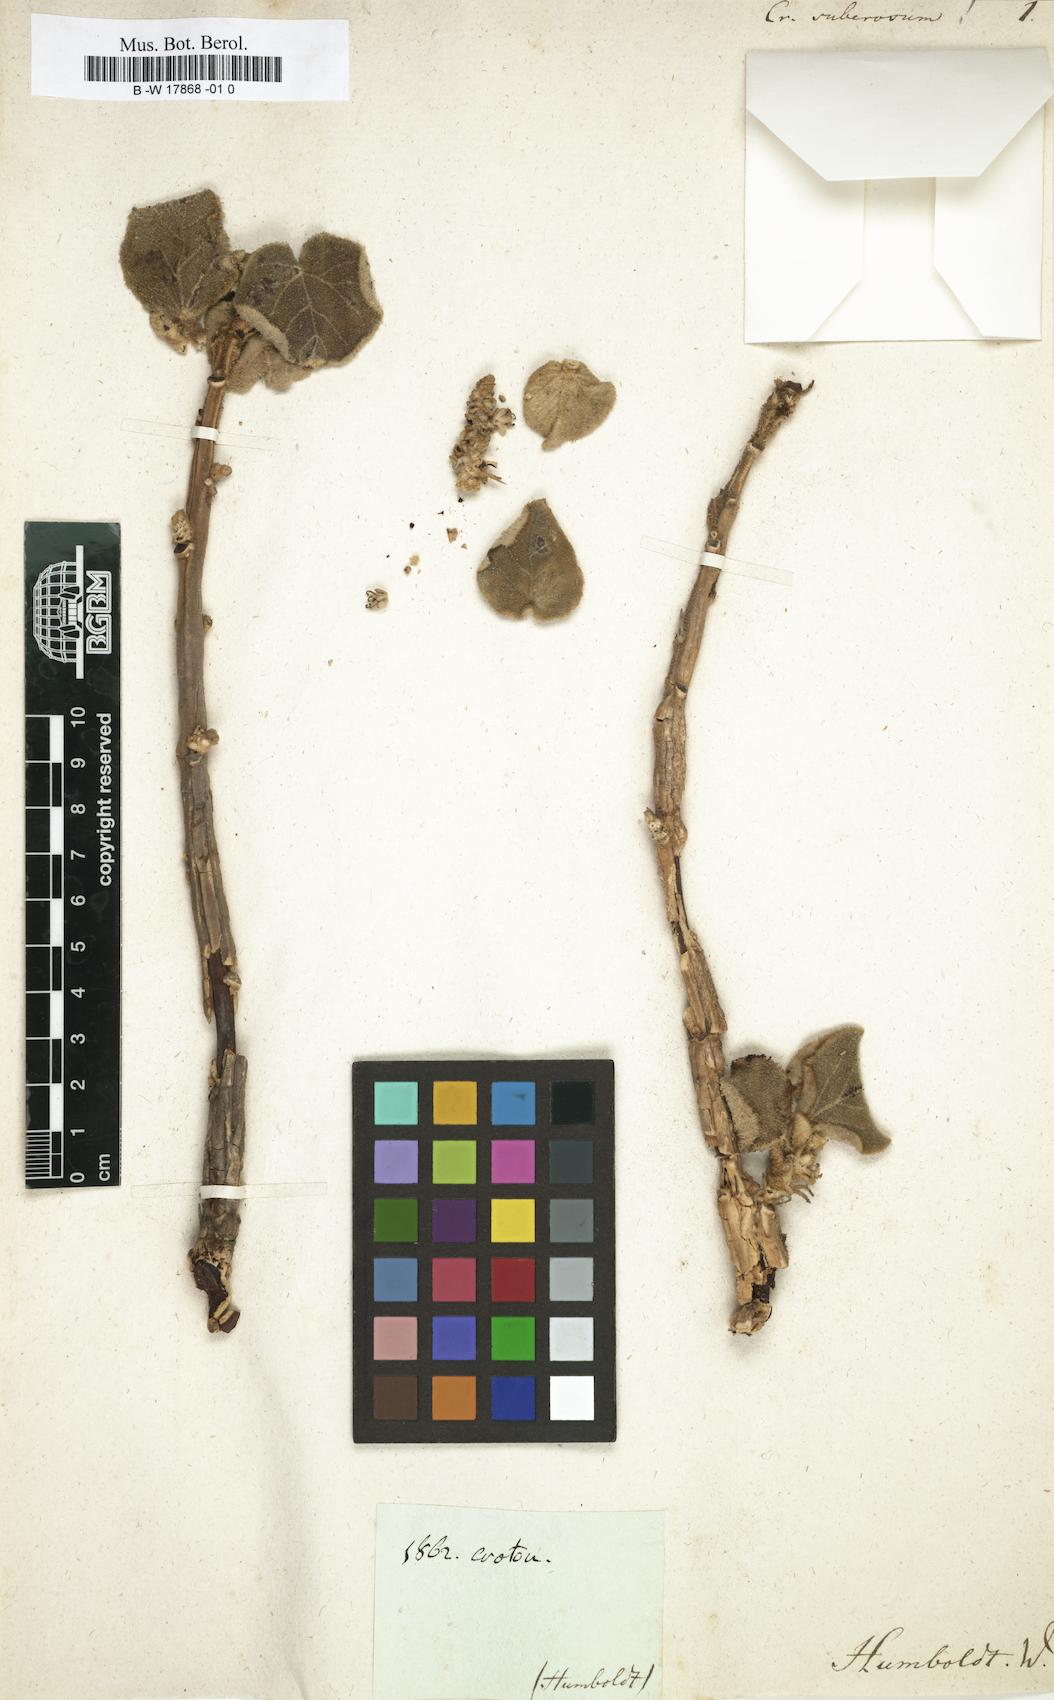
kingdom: Plantae
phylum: Tracheophyta
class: Magnoliopsida
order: Malpighiales
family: Euphorbiaceae
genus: Croton
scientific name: Croton suberosus
